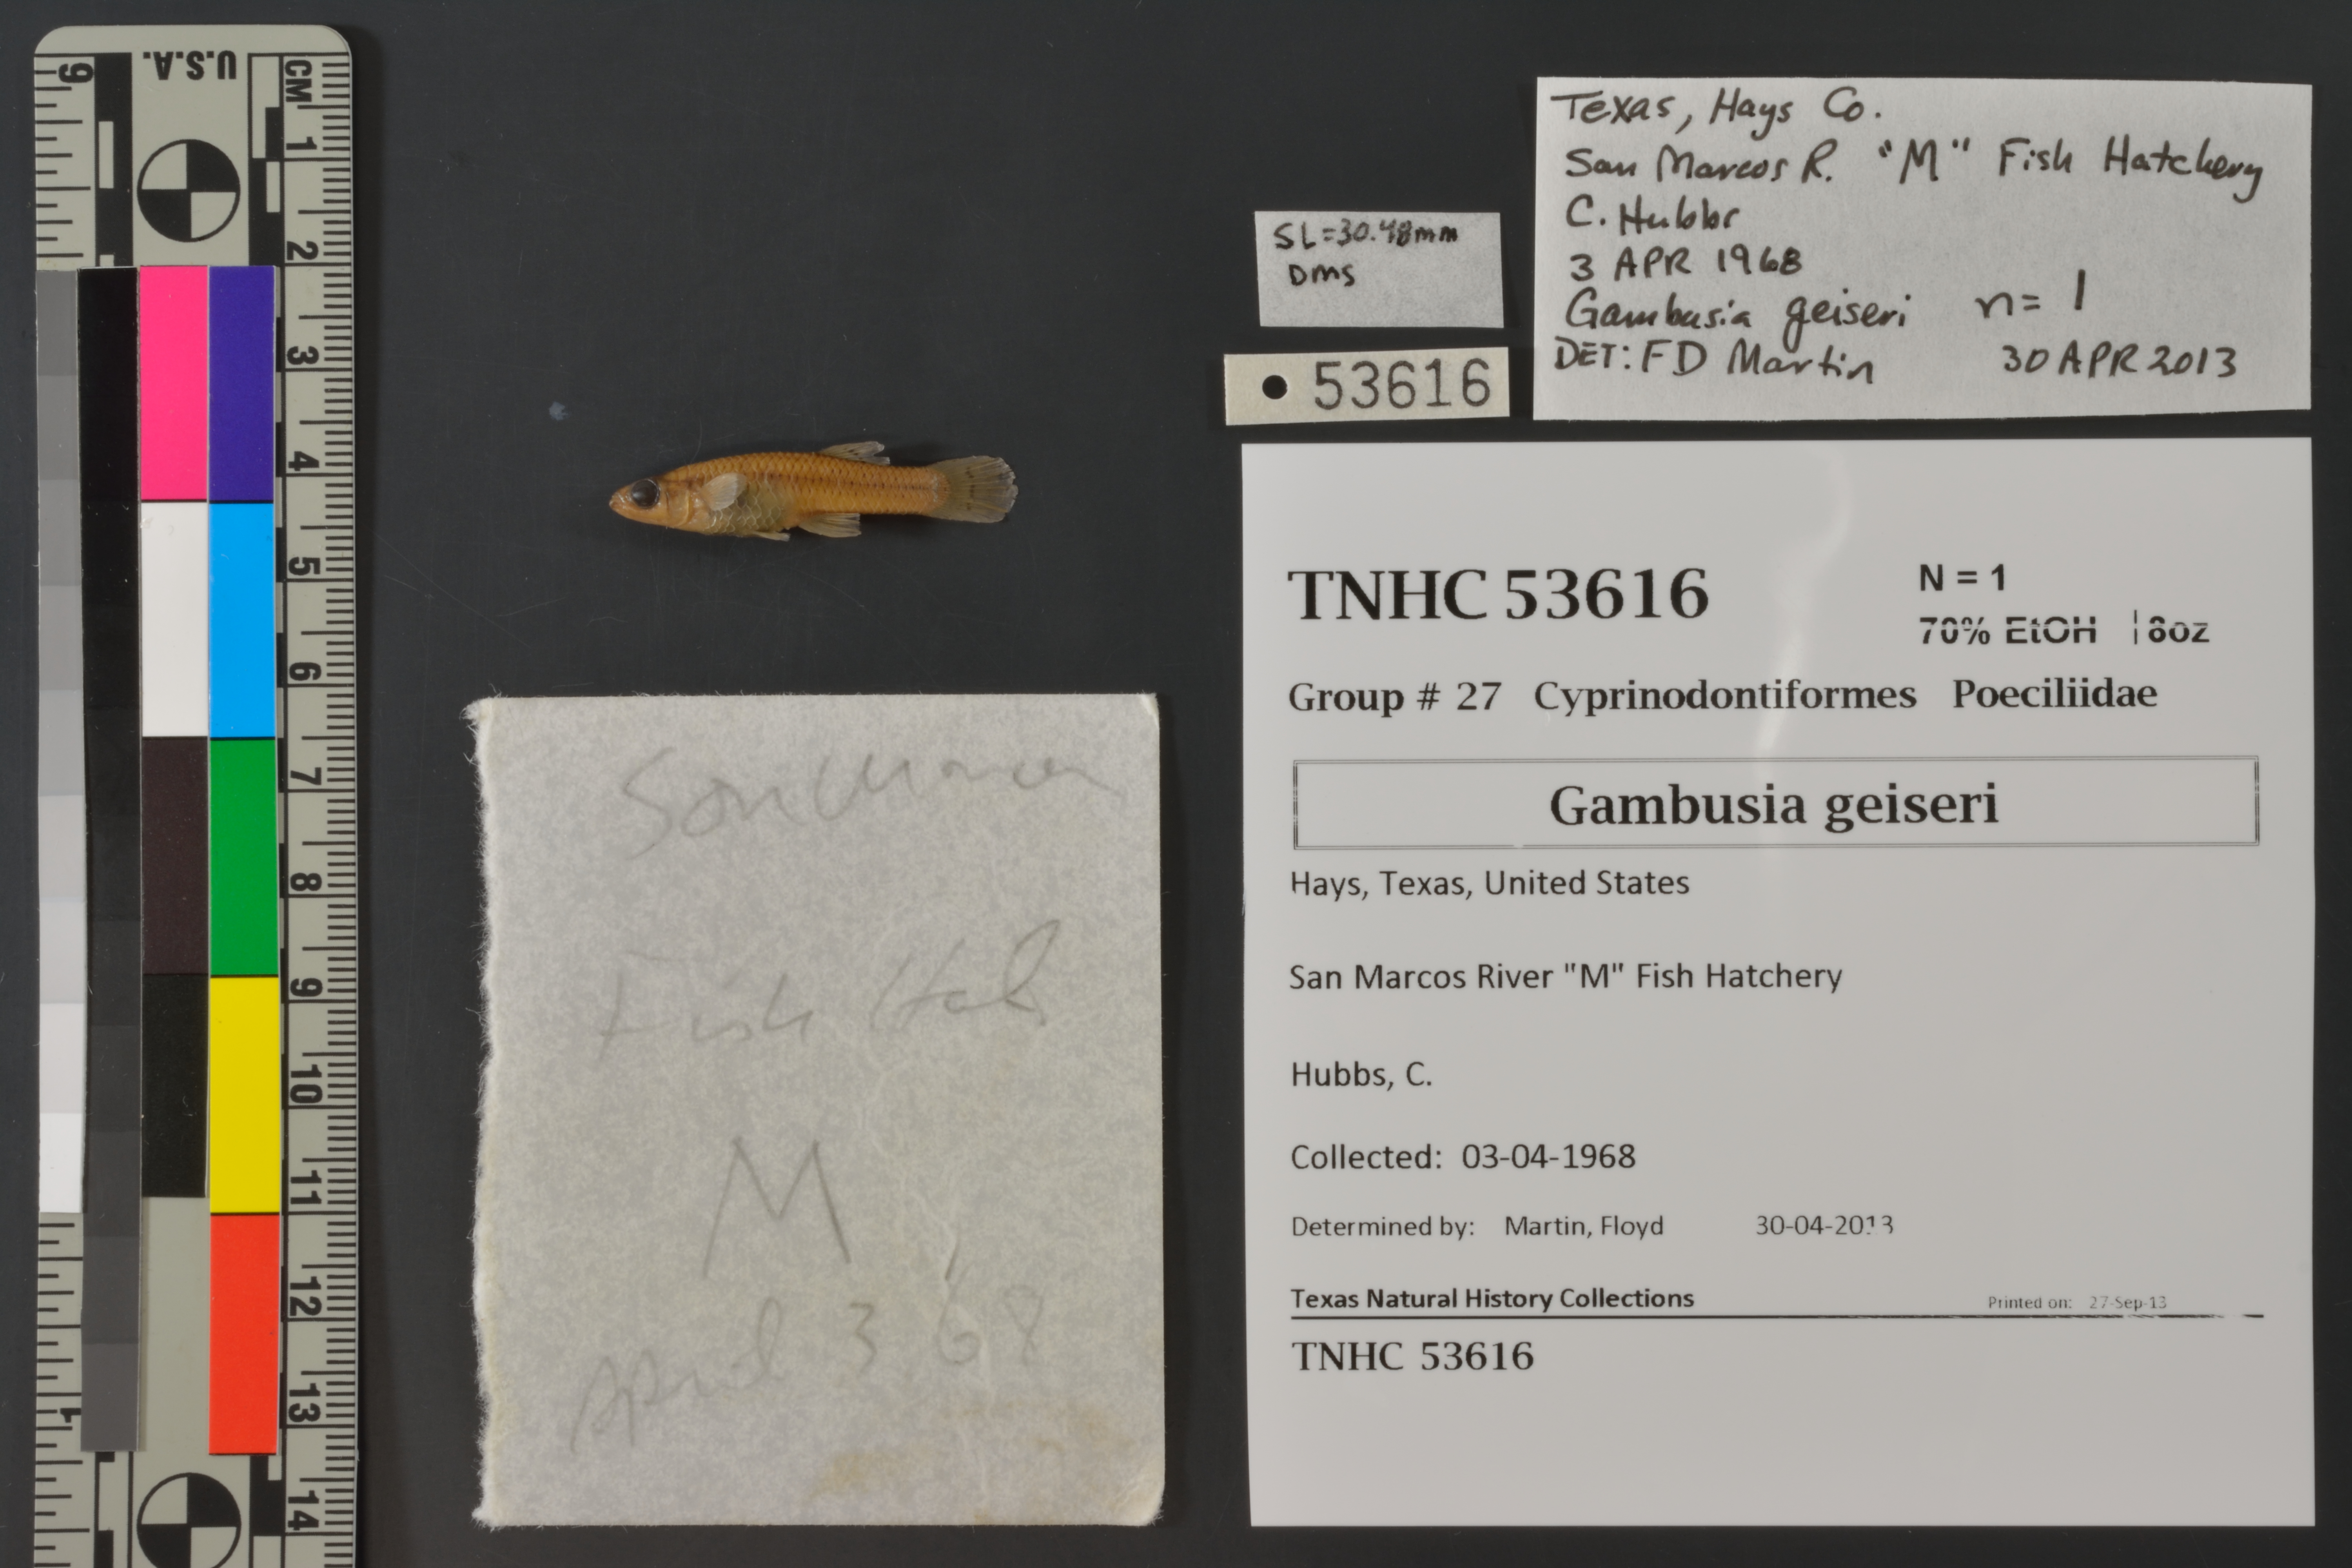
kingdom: Animalia
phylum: Chordata
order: Cyprinodontiformes
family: Poeciliidae
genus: Gambusia
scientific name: Gambusia geiseri
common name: Largespring gambusia
